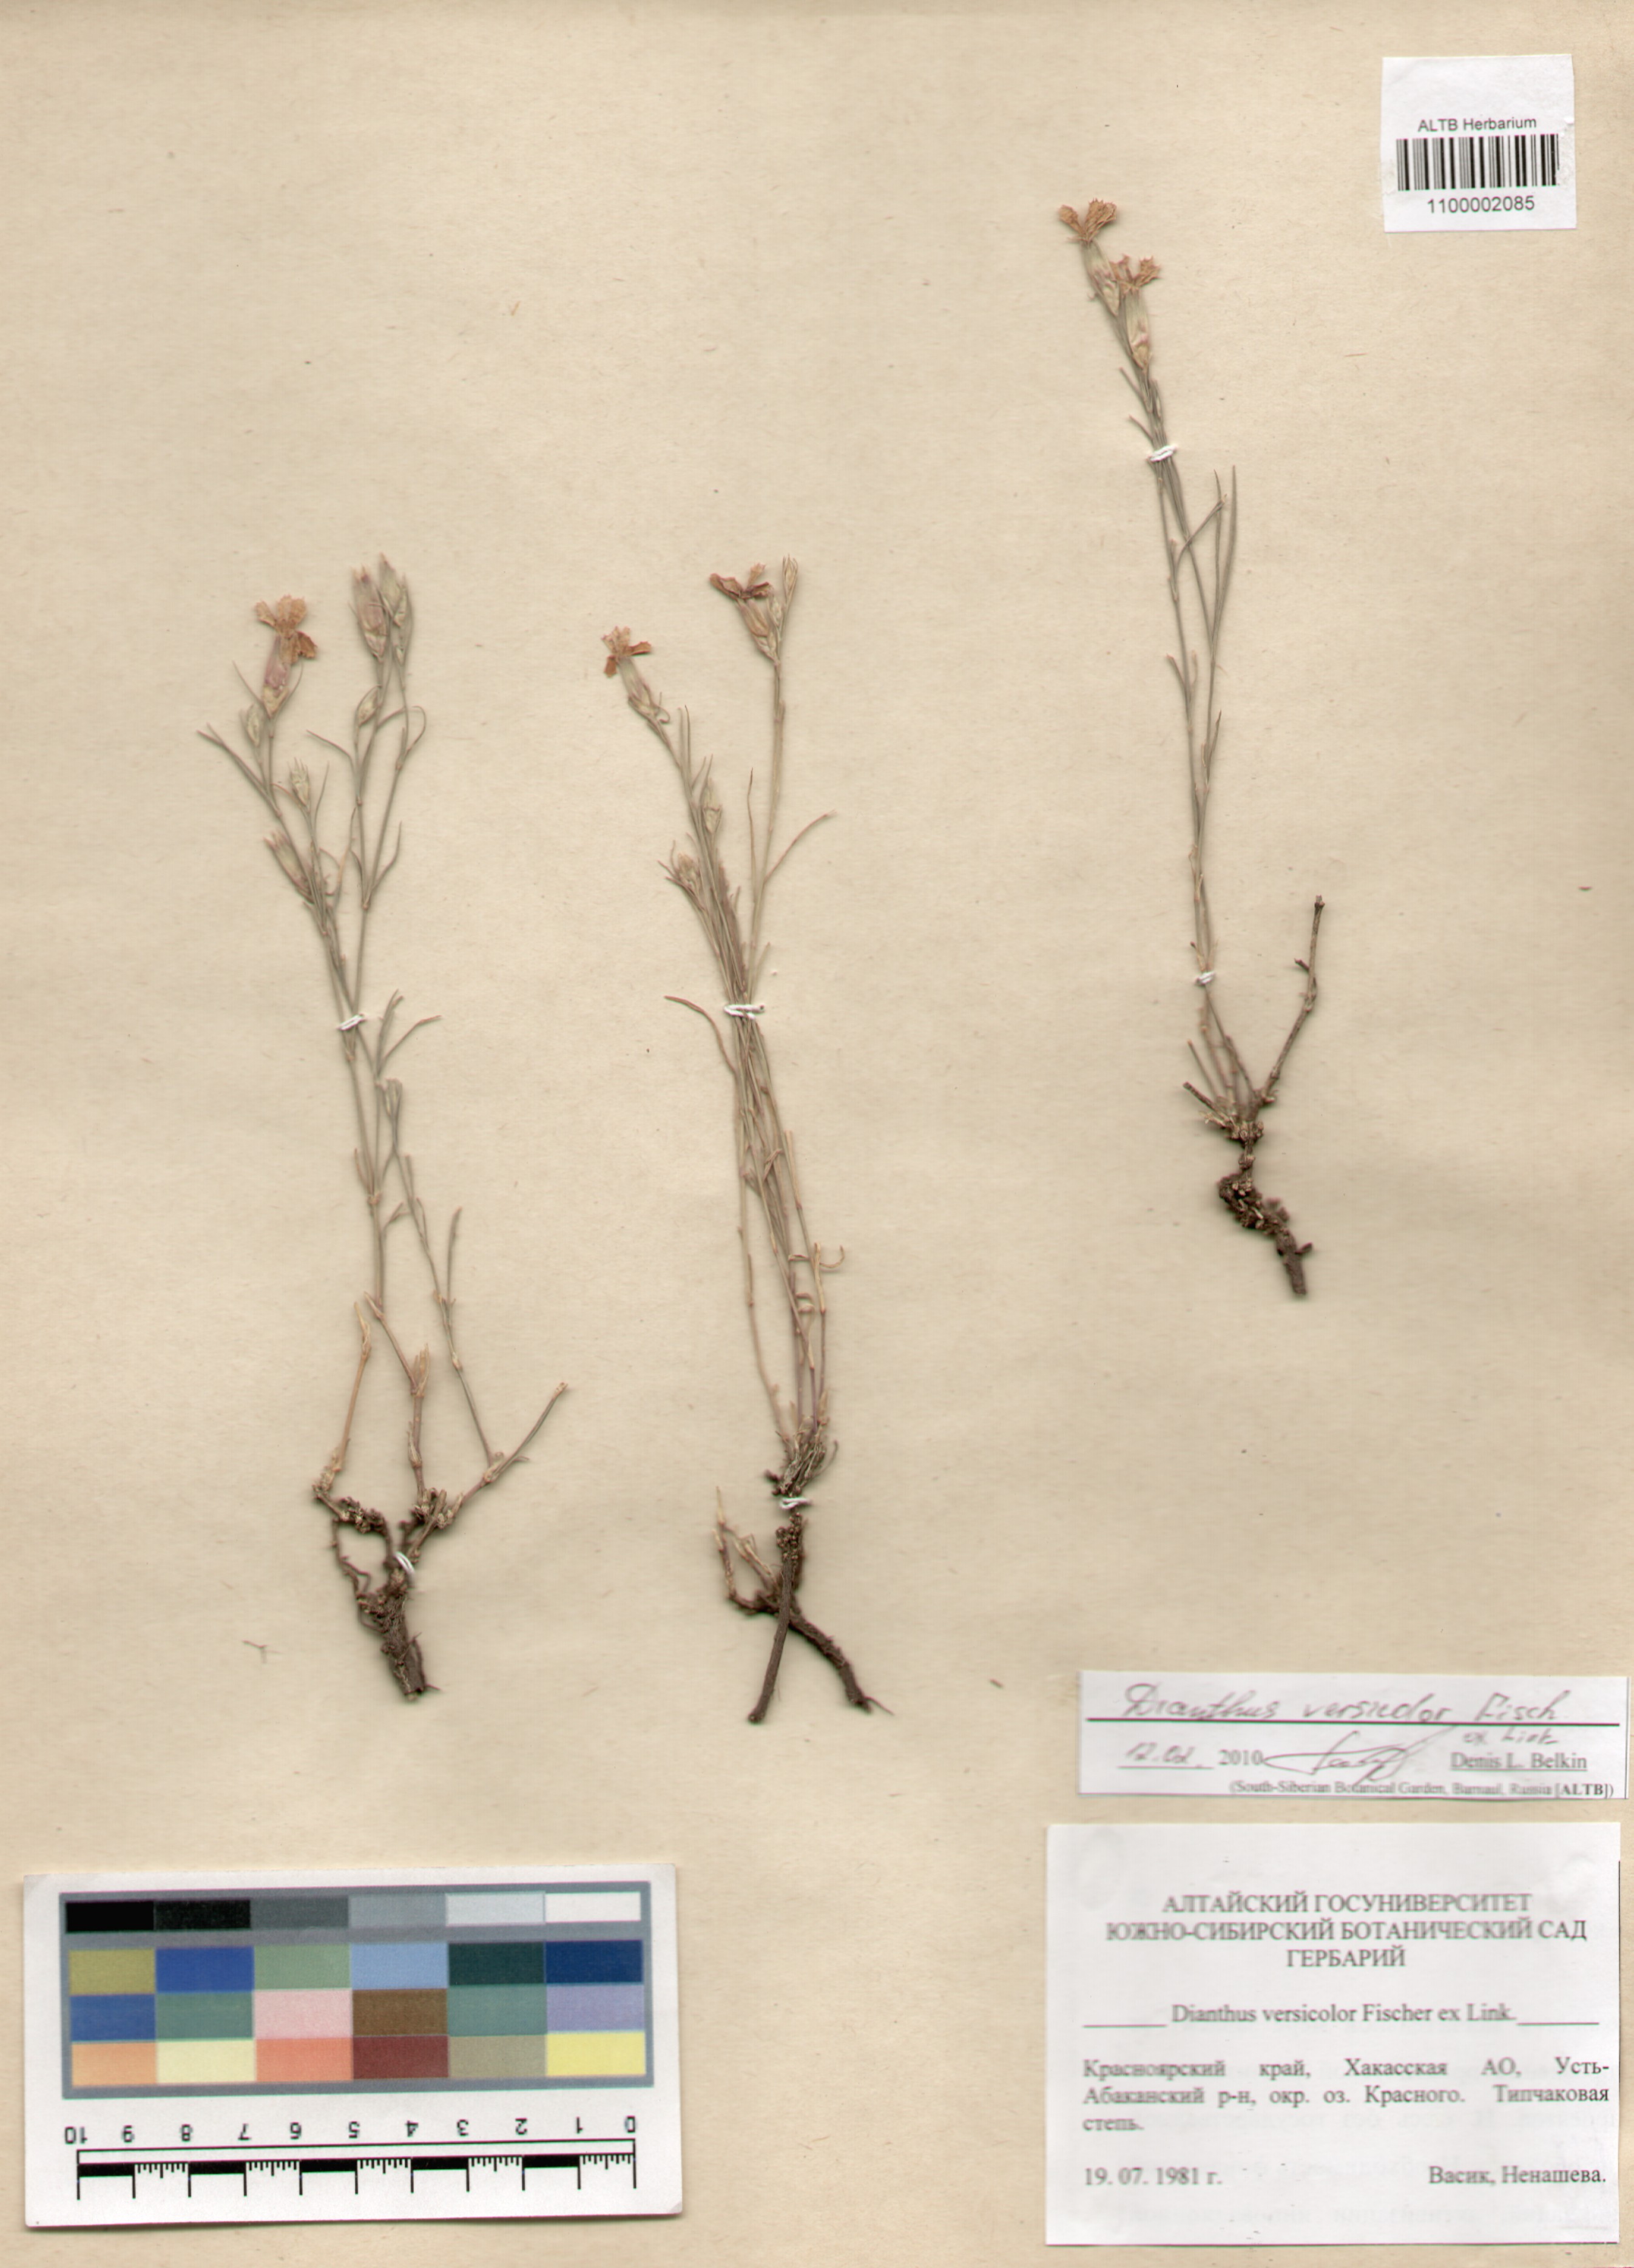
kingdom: Plantae
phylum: Tracheophyta
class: Magnoliopsida
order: Caryophyllales
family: Caryophyllaceae
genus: Dianthus
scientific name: Dianthus chinensis
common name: Rainbow pink
